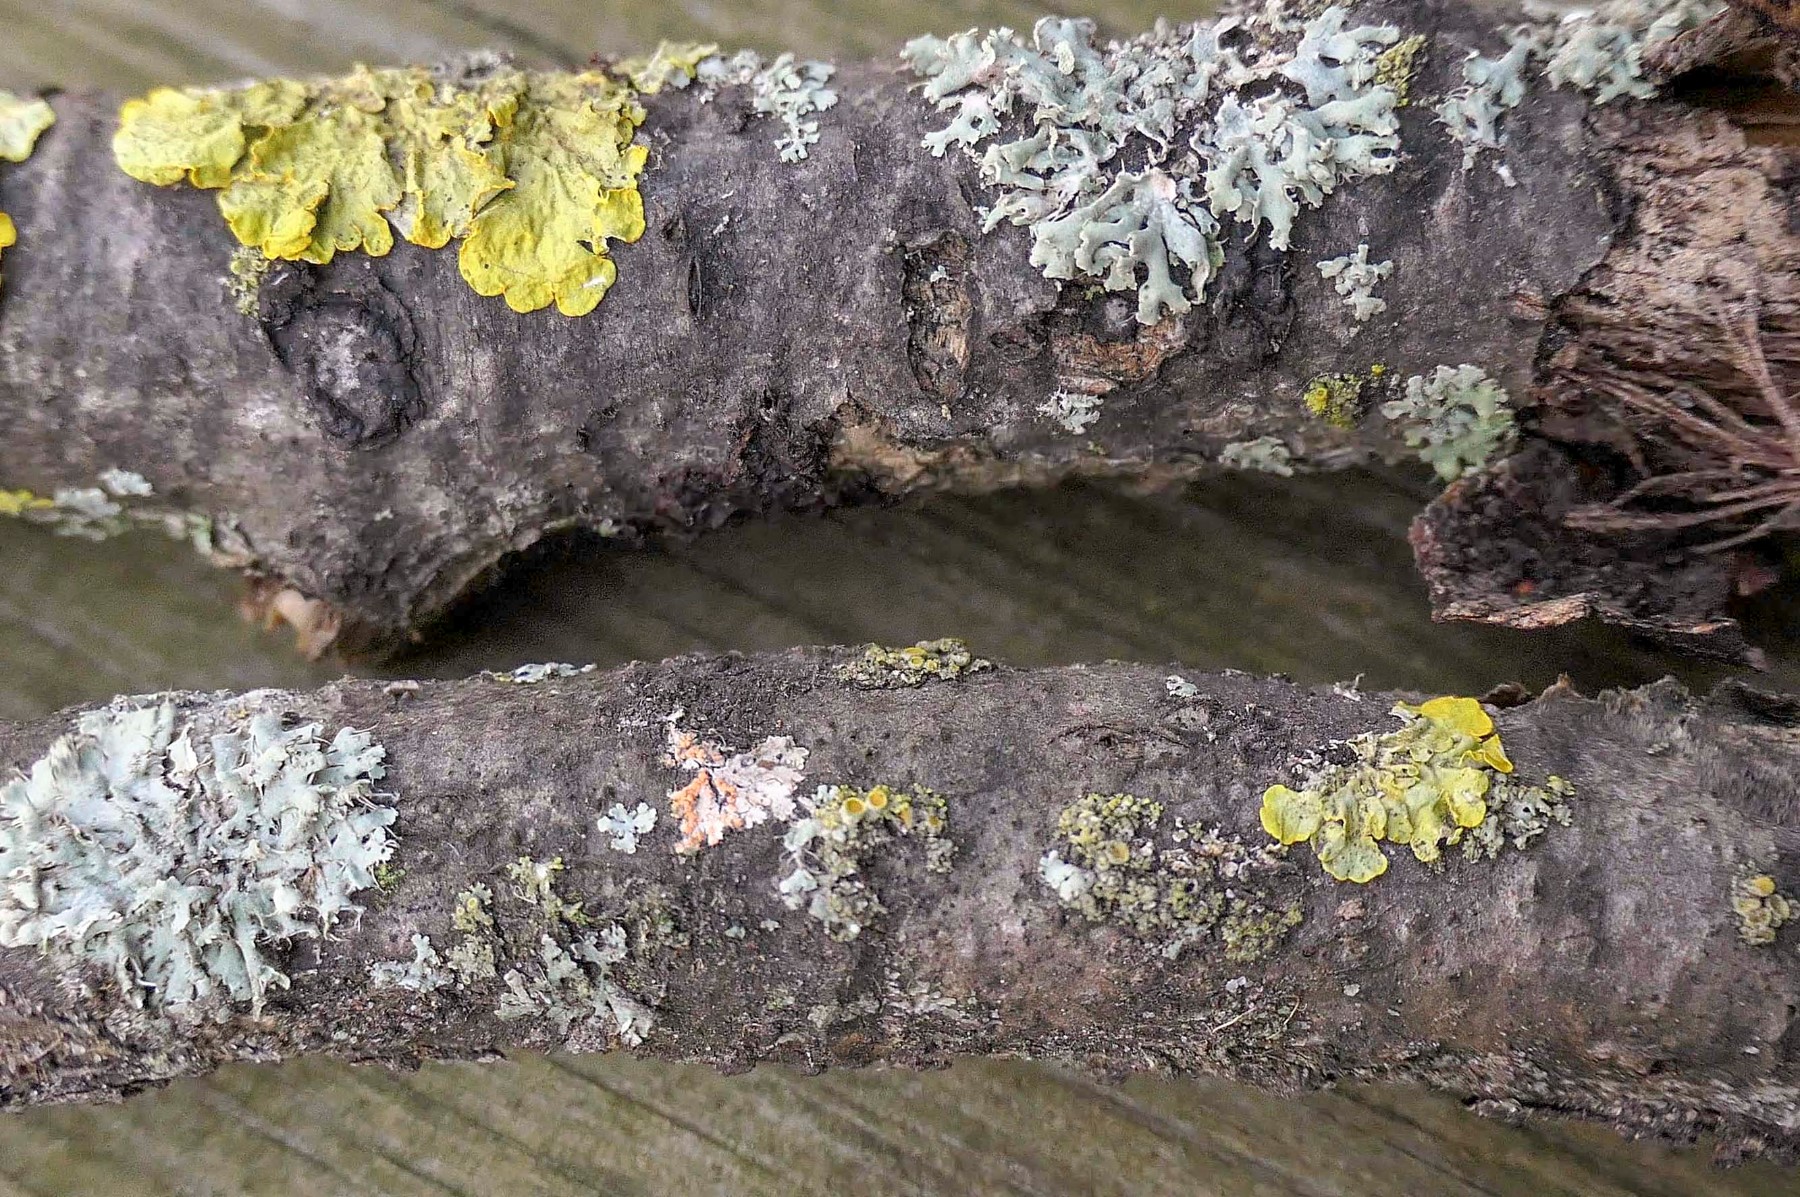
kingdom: Fungi
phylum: Basidiomycota
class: Agaricomycetes
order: Corticiales
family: Corticiaceae
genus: Erythricium
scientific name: Erythricium aurantiacum
